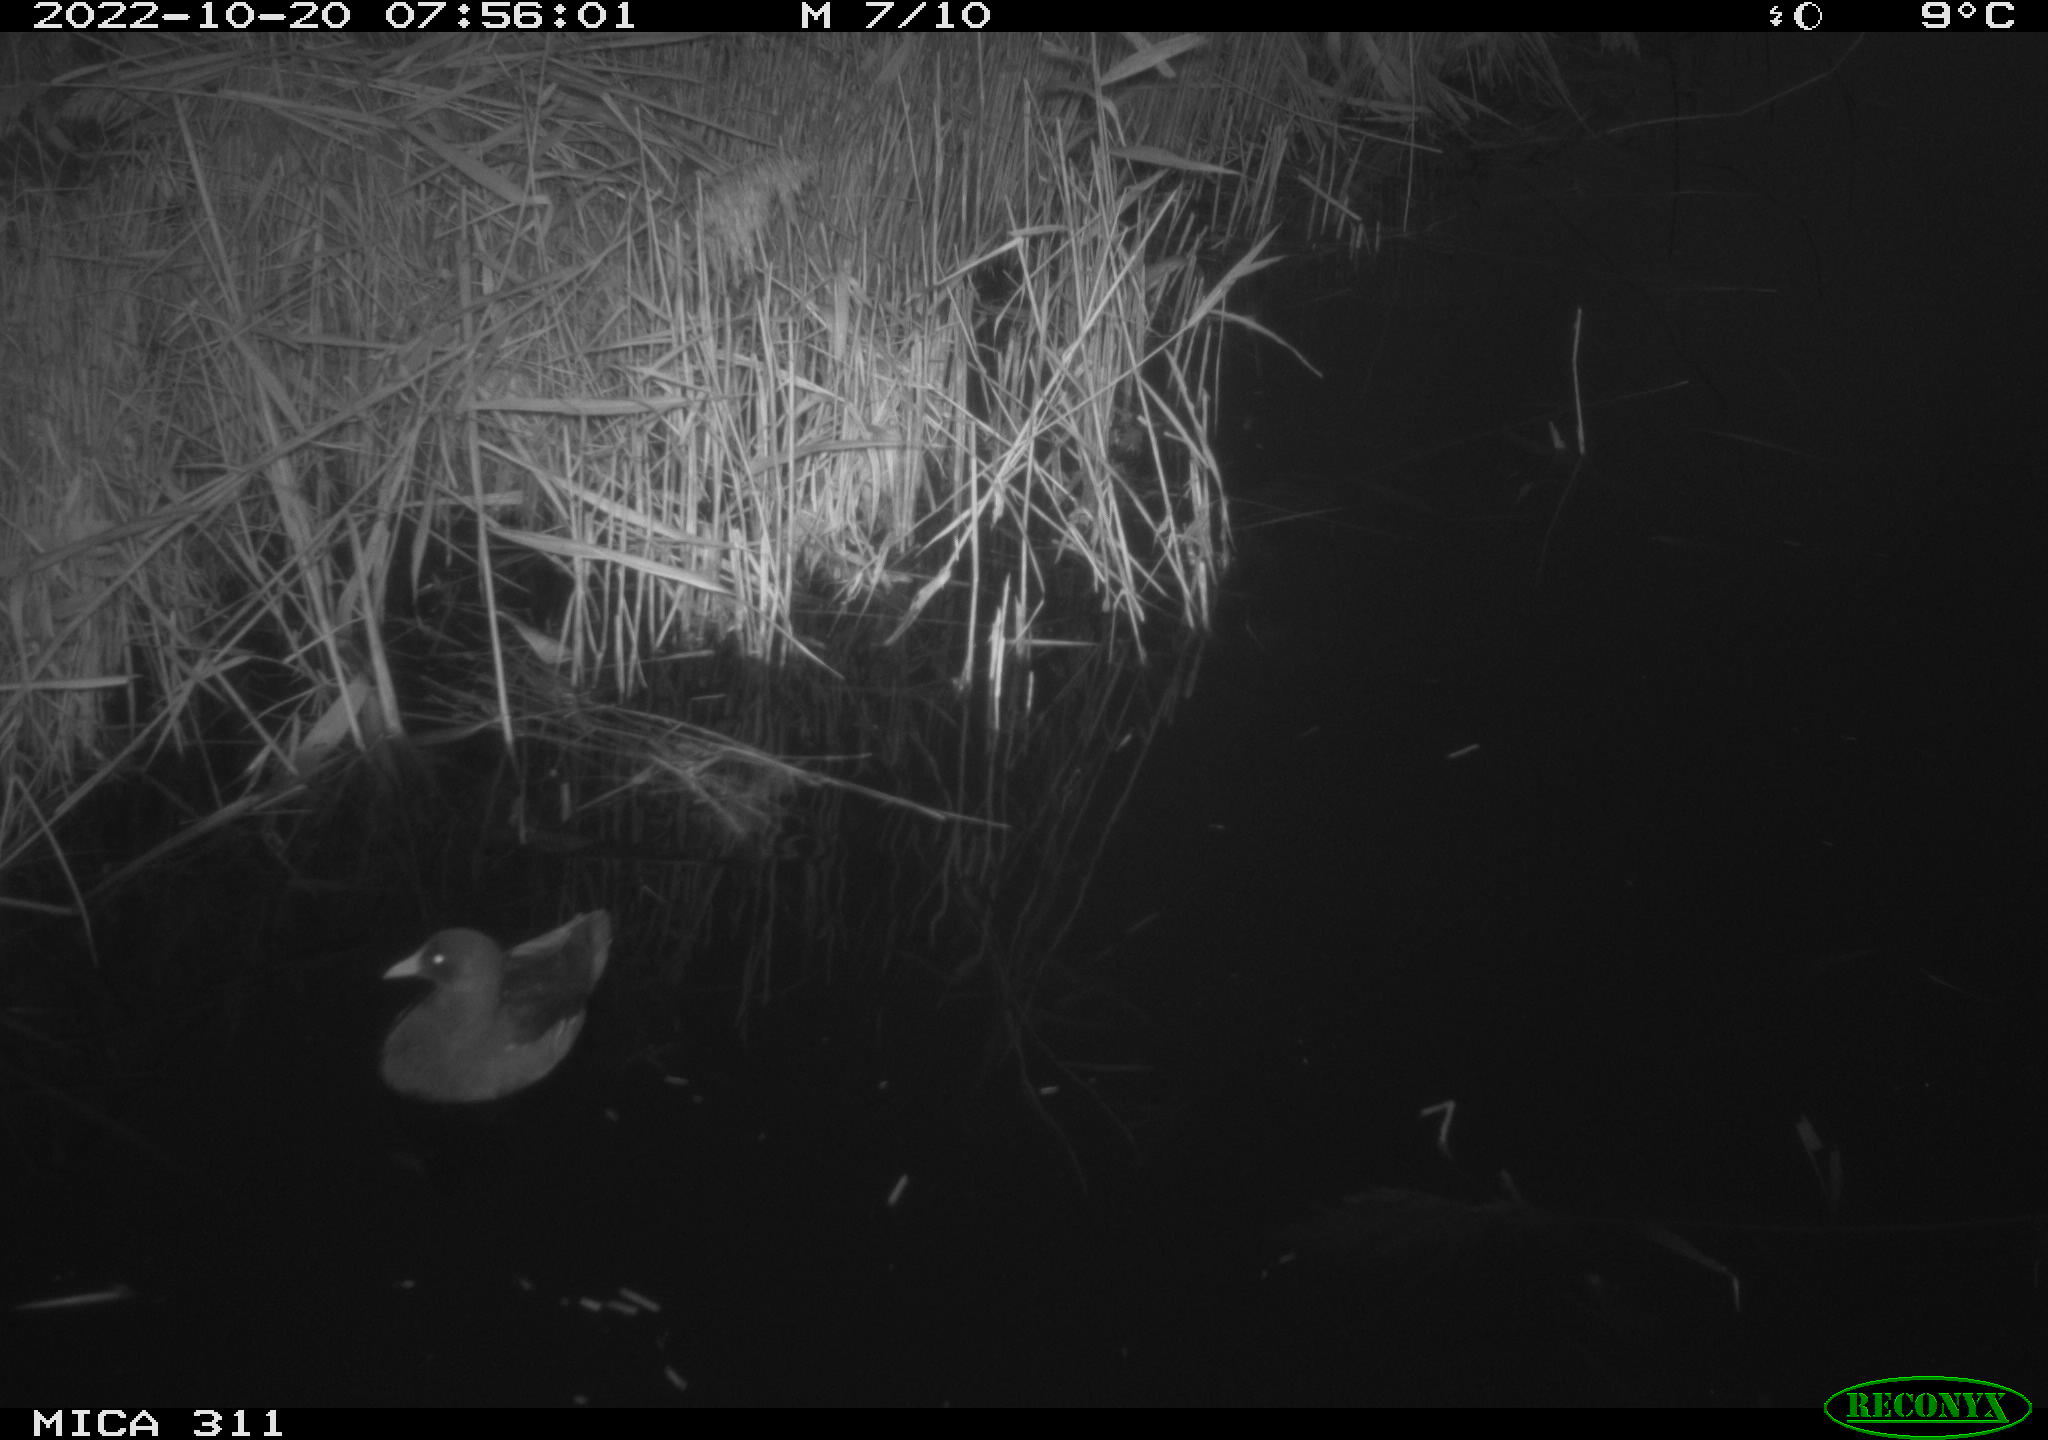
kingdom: Animalia
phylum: Chordata
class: Aves
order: Gruiformes
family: Rallidae
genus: Gallinula
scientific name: Gallinula chloropus
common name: Common moorhen
